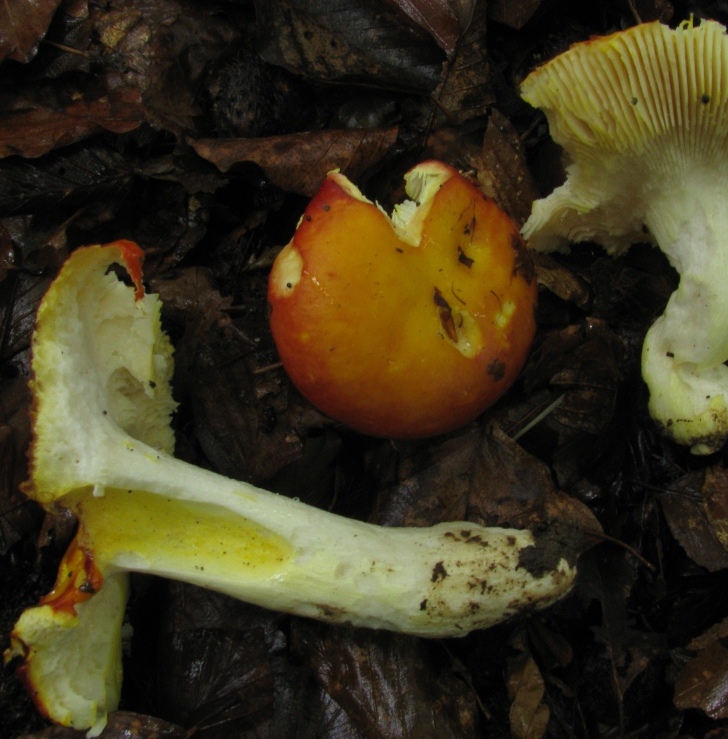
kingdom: Fungi
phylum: Basidiomycota
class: Agaricomycetes
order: Russulales
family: Russulaceae
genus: Russula
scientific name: Russula aurea
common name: gylden skørhat
